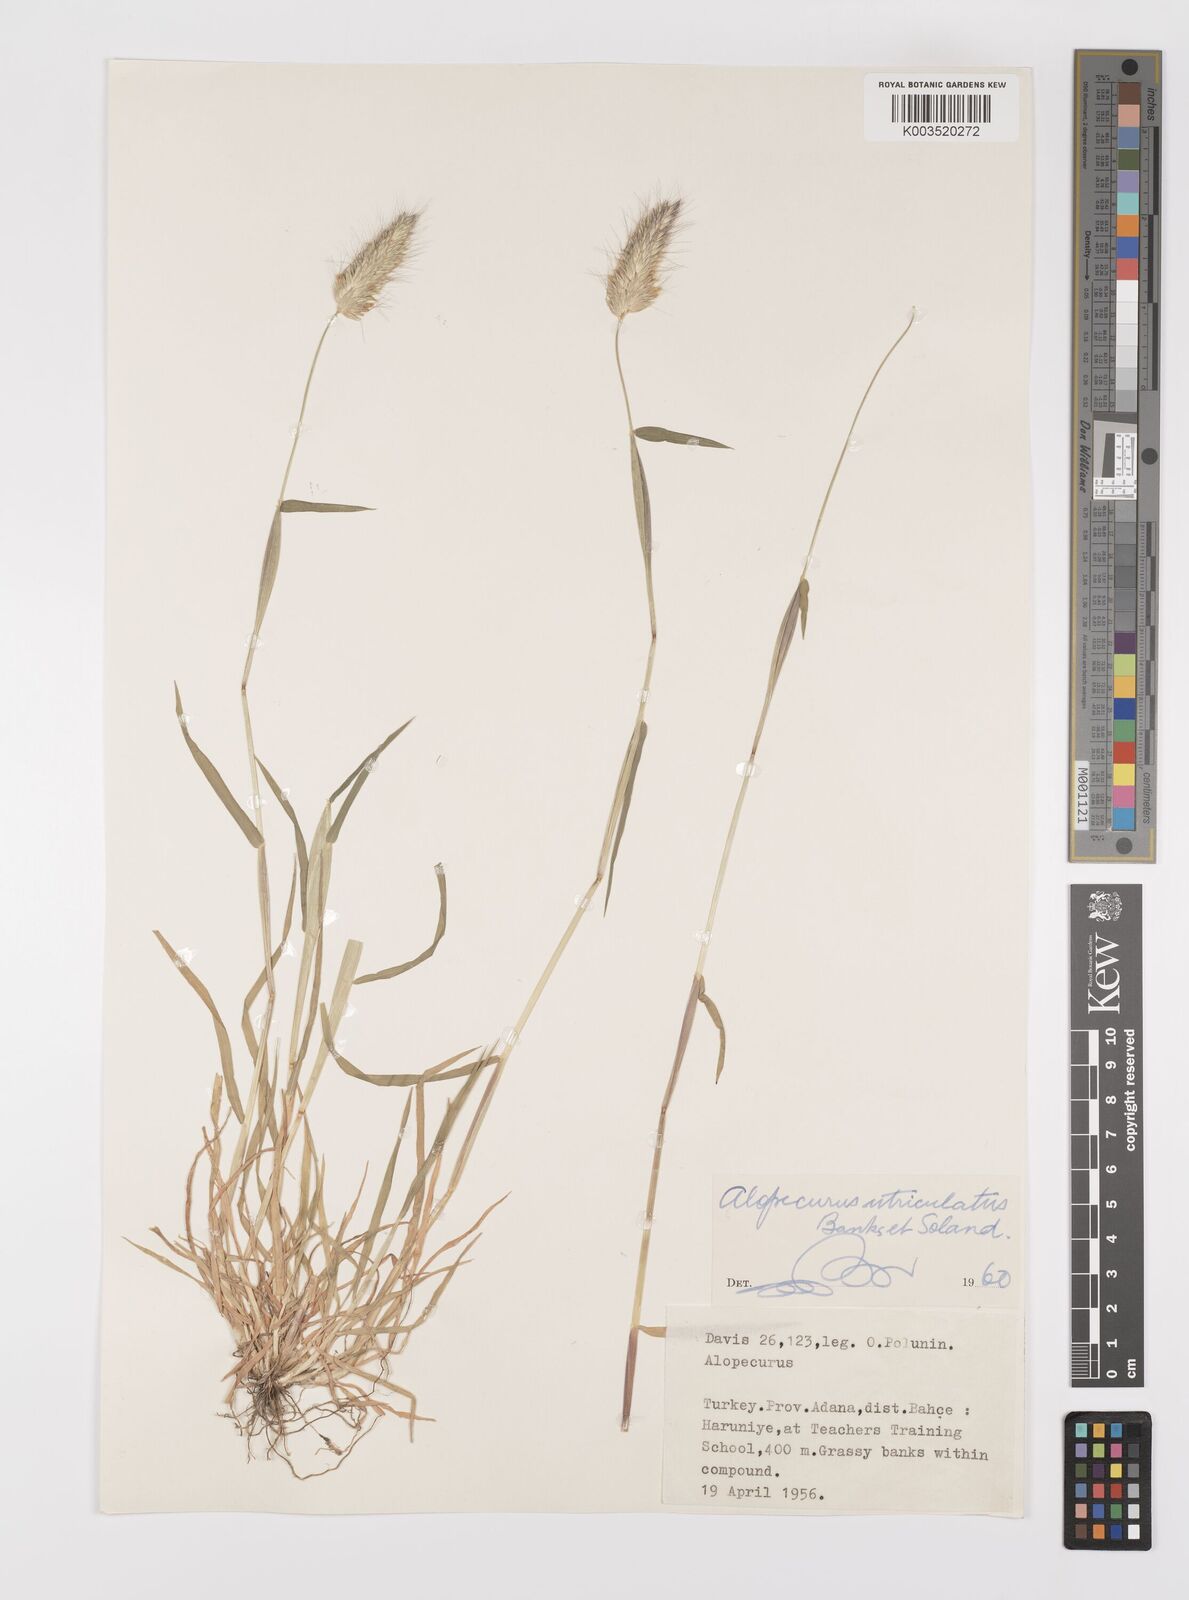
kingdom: Plantae
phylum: Tracheophyta
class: Liliopsida
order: Poales
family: Poaceae
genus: Alopecurus
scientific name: Alopecurus utriculatus
